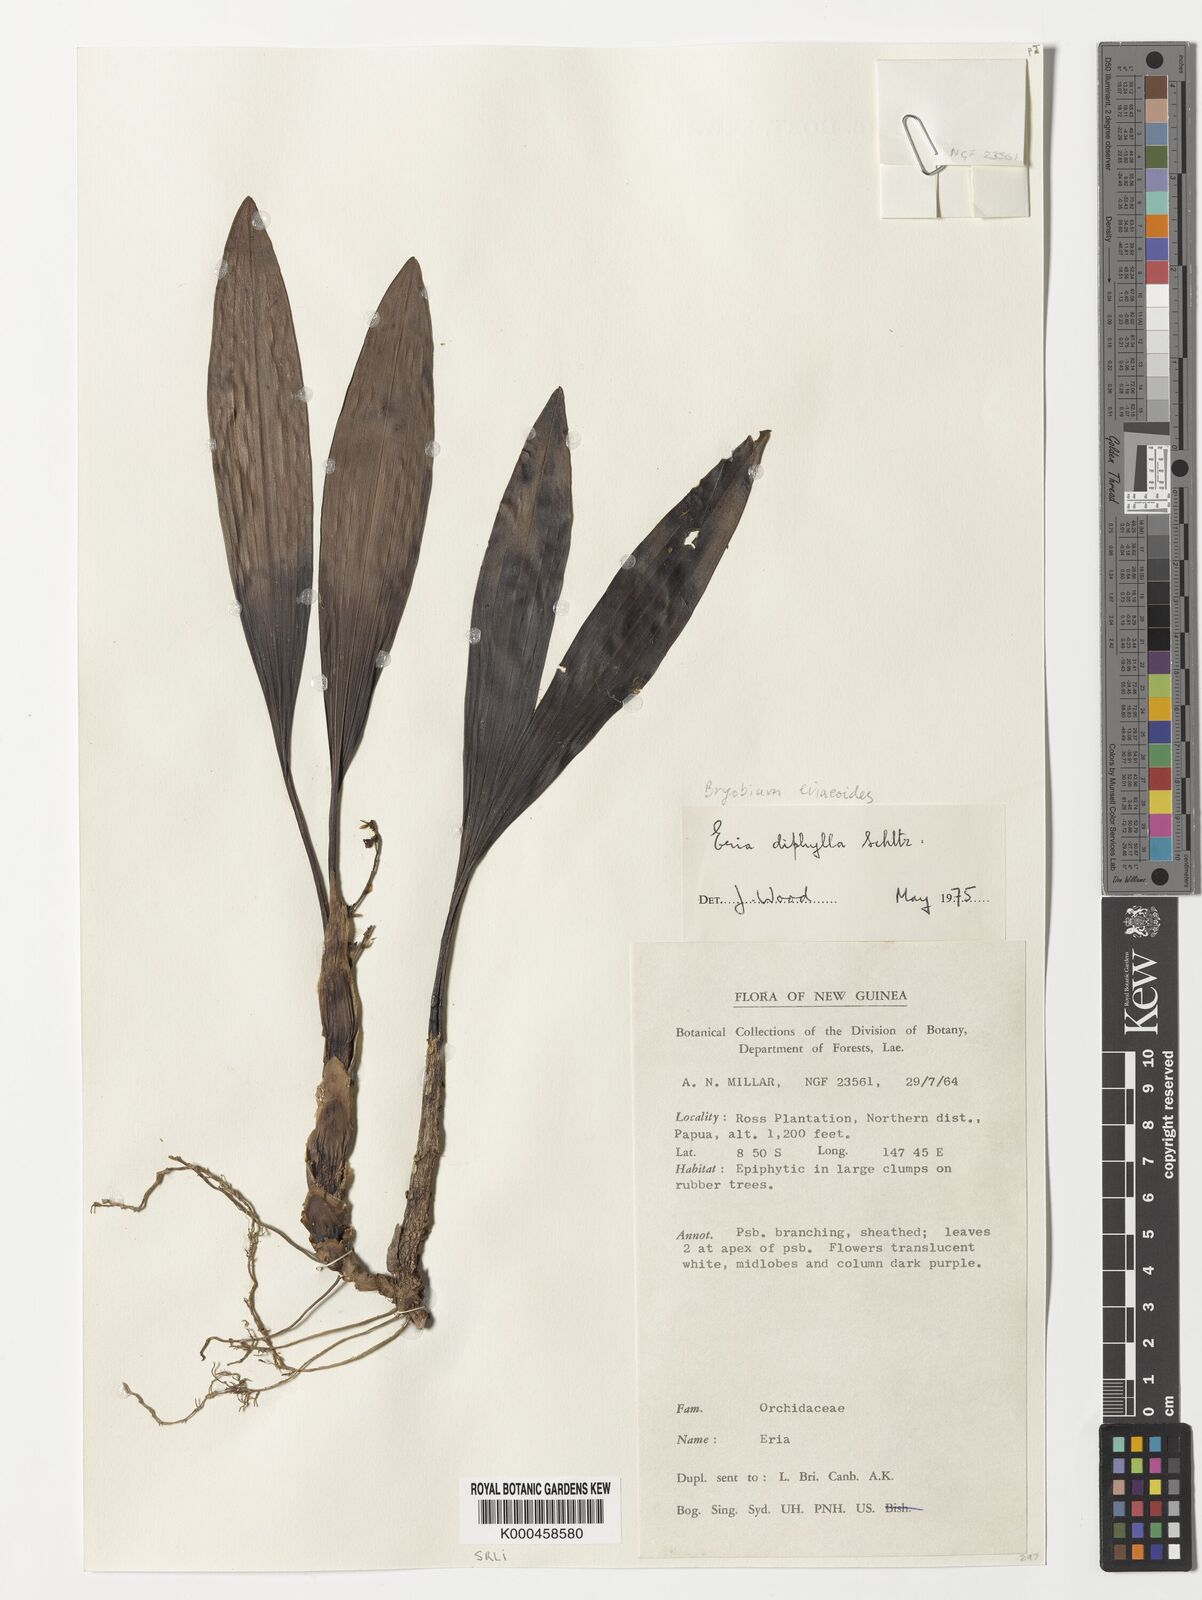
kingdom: Plantae
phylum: Tracheophyta
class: Liliopsida
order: Asparagales
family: Orchidaceae
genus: Bryobium
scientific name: Bryobium eriaeoides
